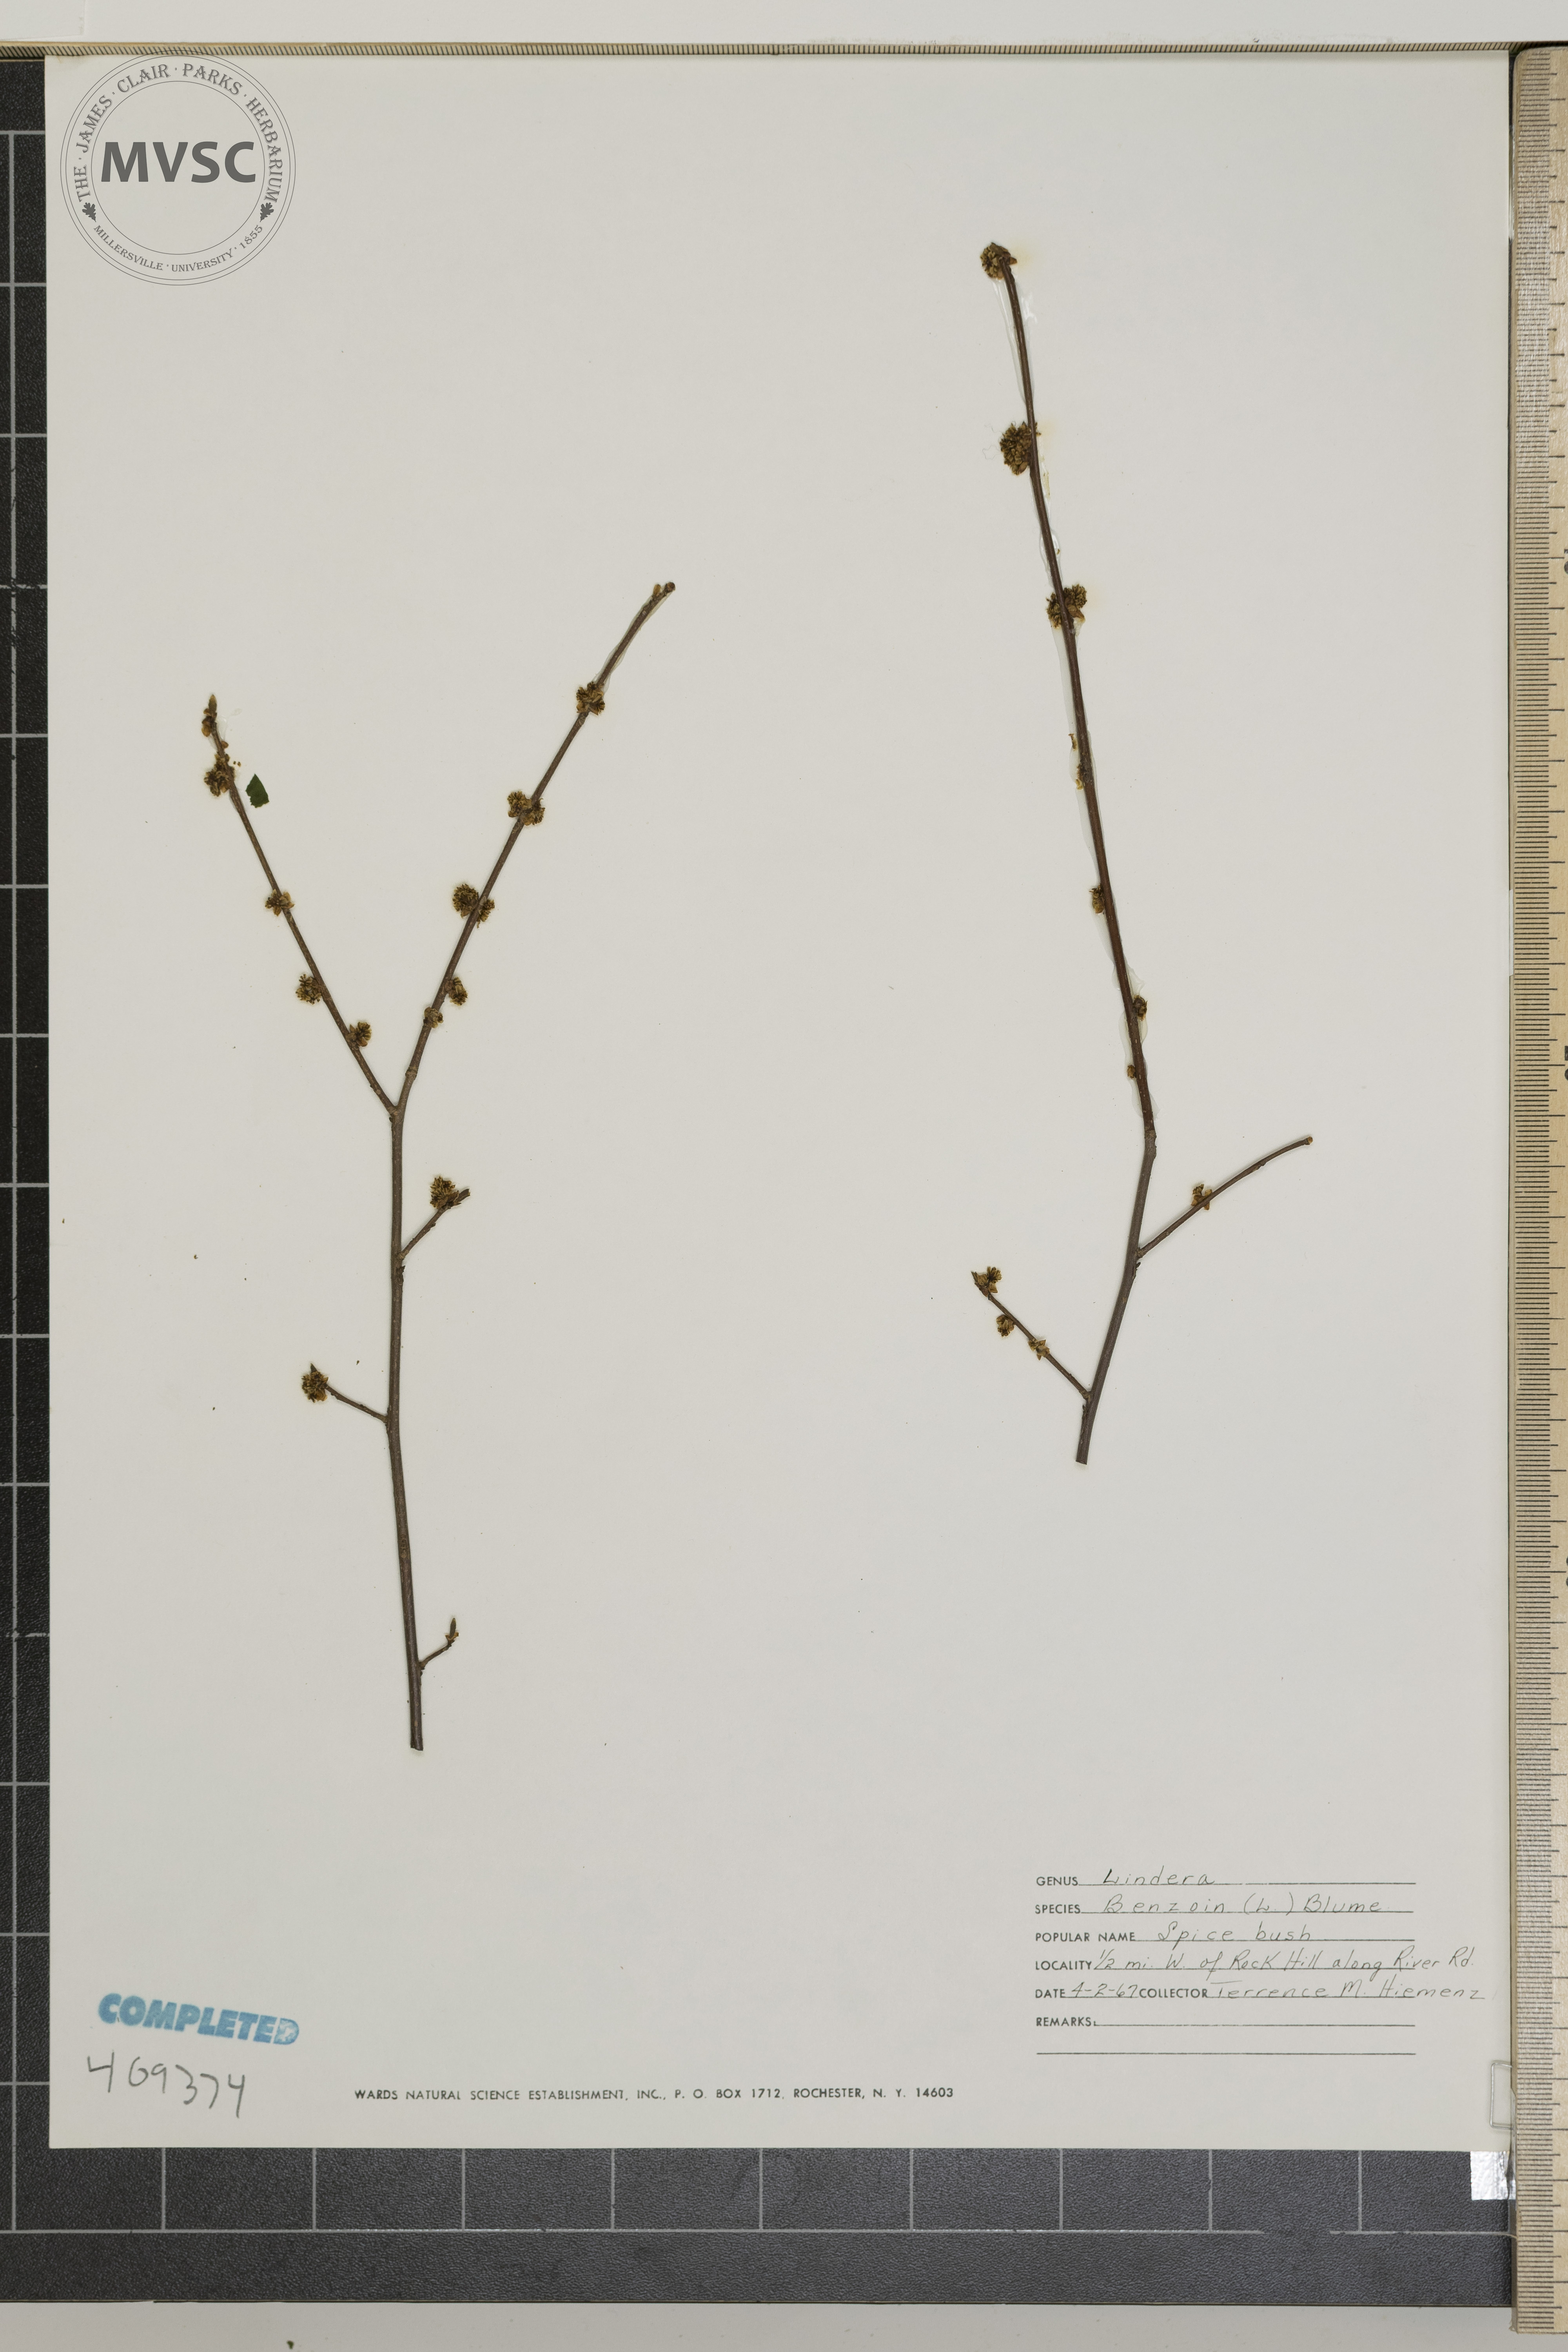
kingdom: Plantae
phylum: Tracheophyta
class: Magnoliopsida
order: Laurales
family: Lauraceae
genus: Lindera
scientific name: Lindera benzoin
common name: Spicebush
